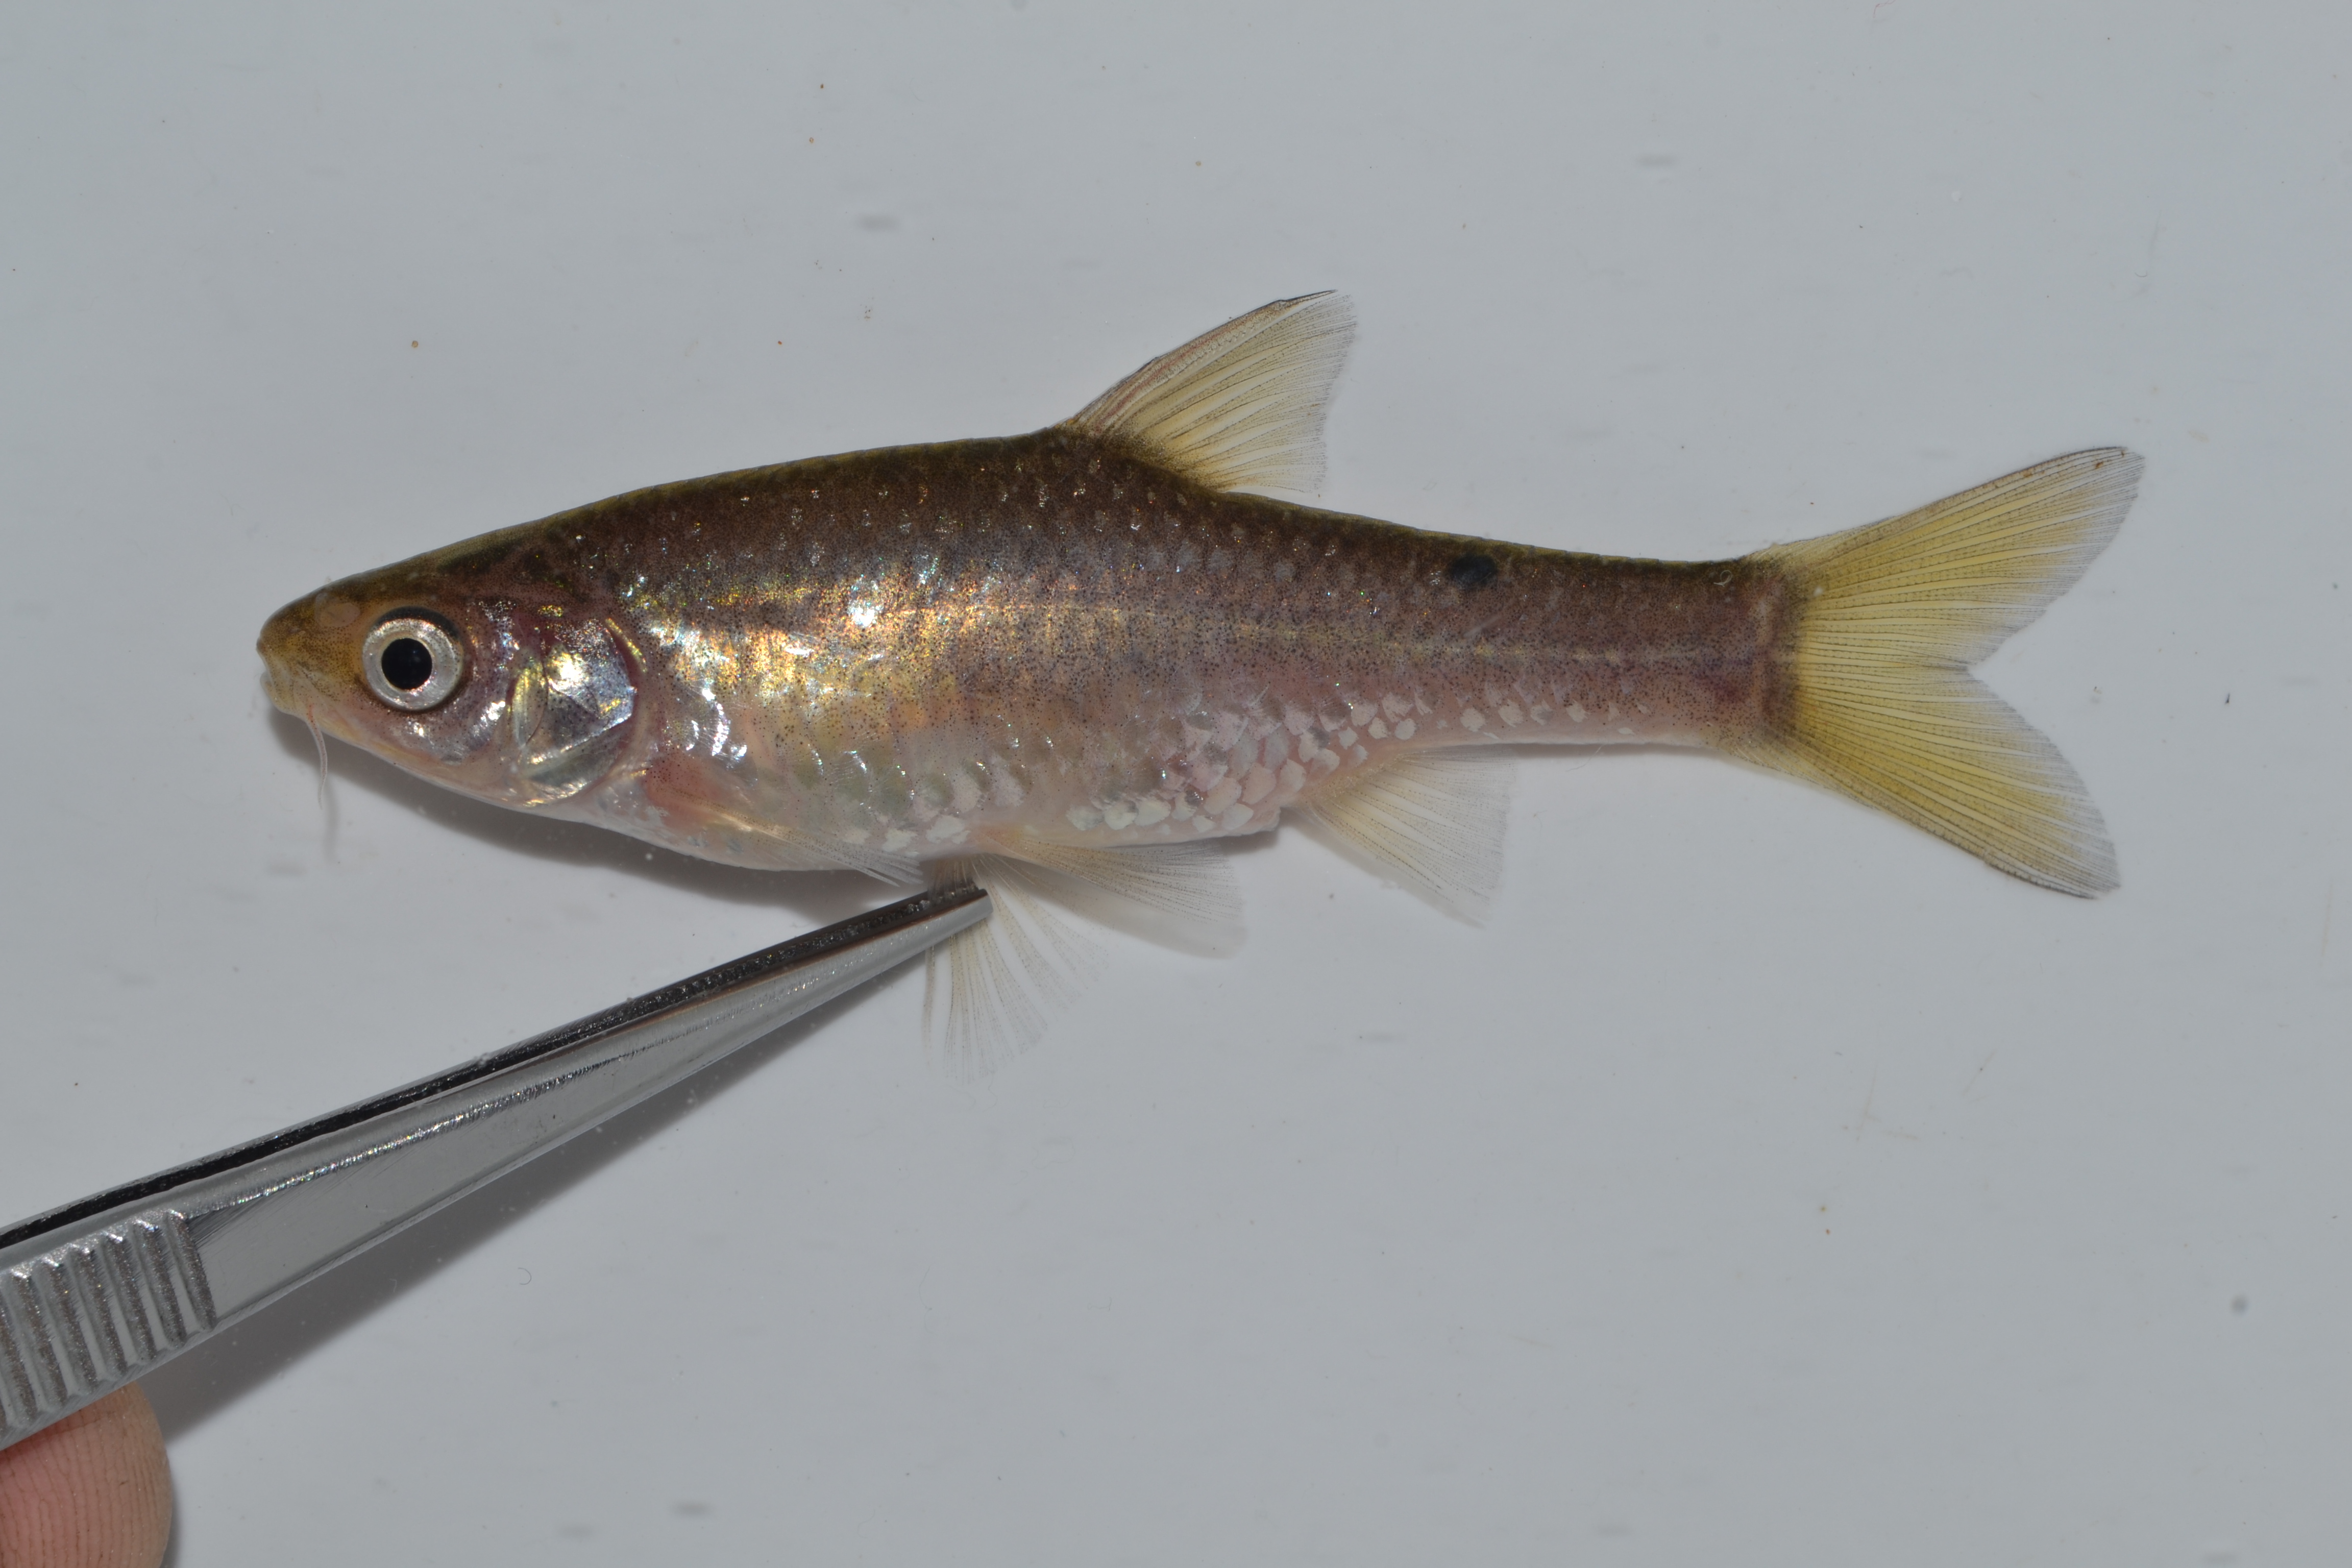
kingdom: Animalia
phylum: Chordata
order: Cypriniformes
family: Cyprinidae
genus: Enteromius
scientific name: Enteromius paludinosus
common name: Straightfin barb
